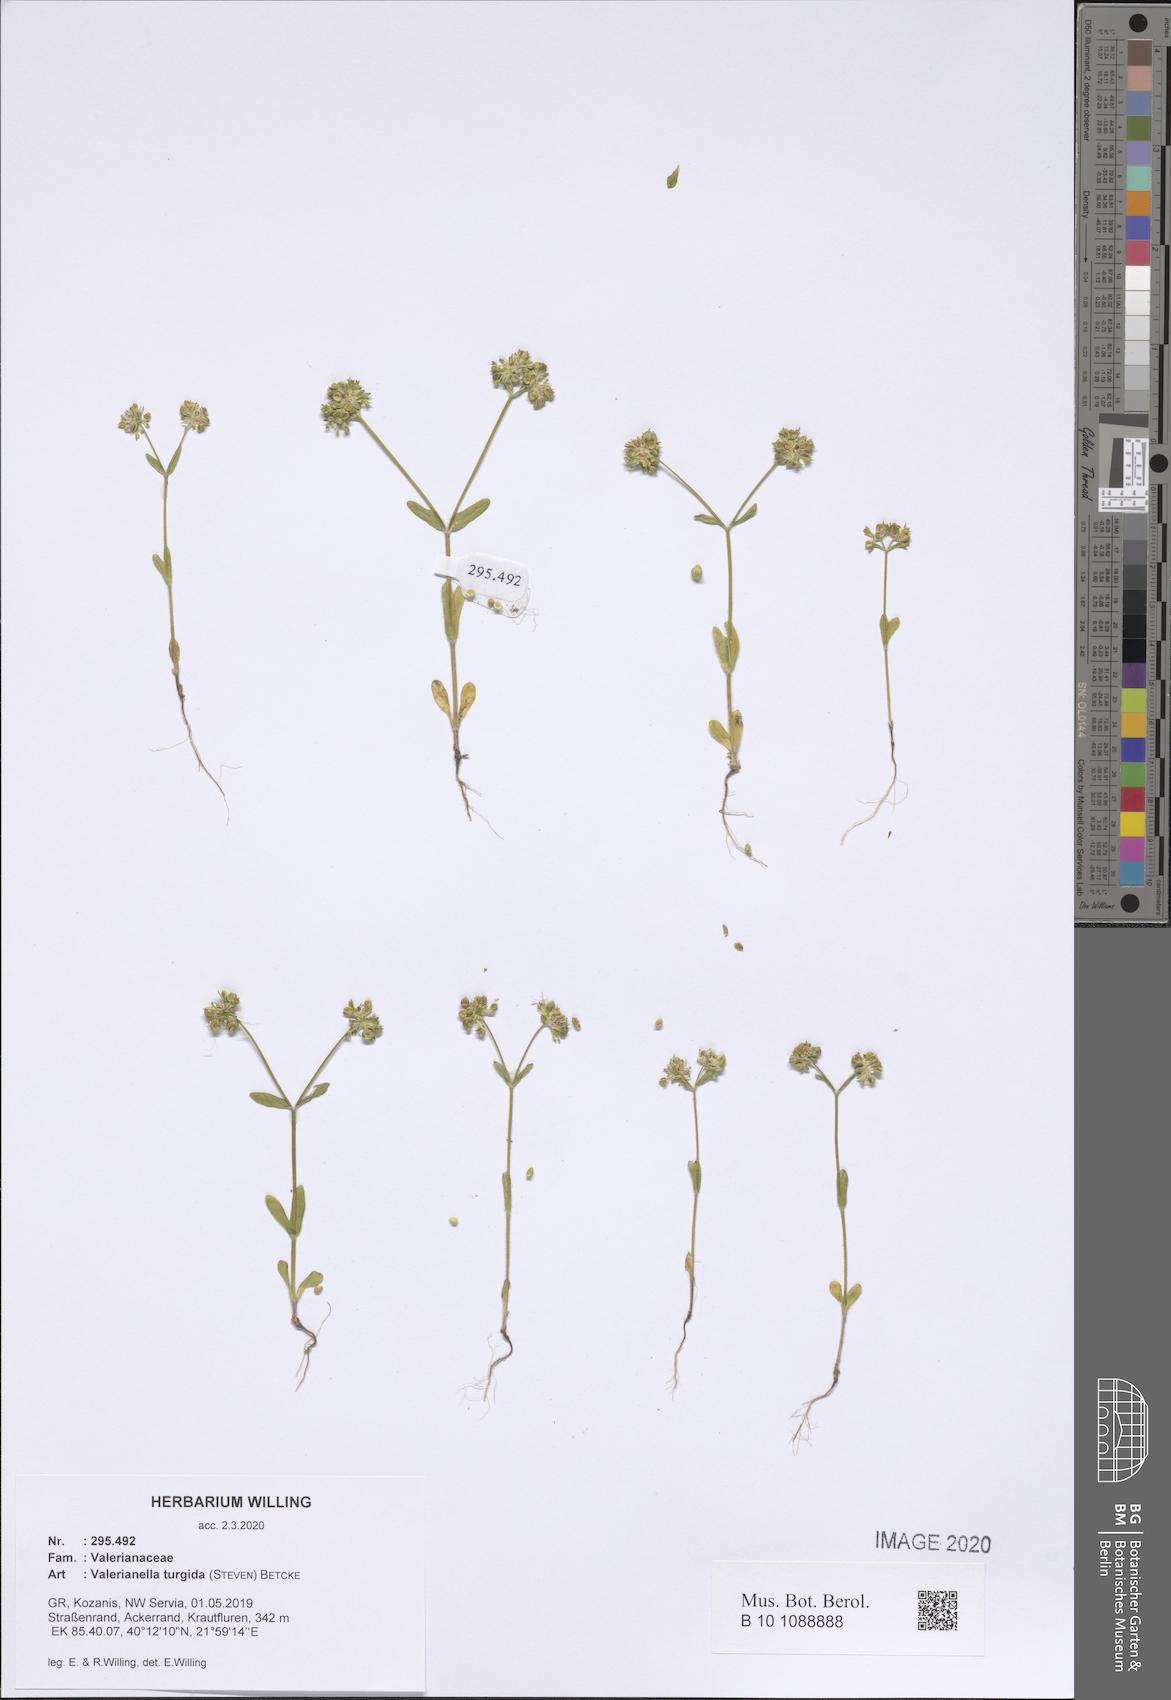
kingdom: Plantae
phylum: Tracheophyta
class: Magnoliopsida
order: Dipsacales
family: Caprifoliaceae
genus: Valerianella
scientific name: Valerianella turgida
